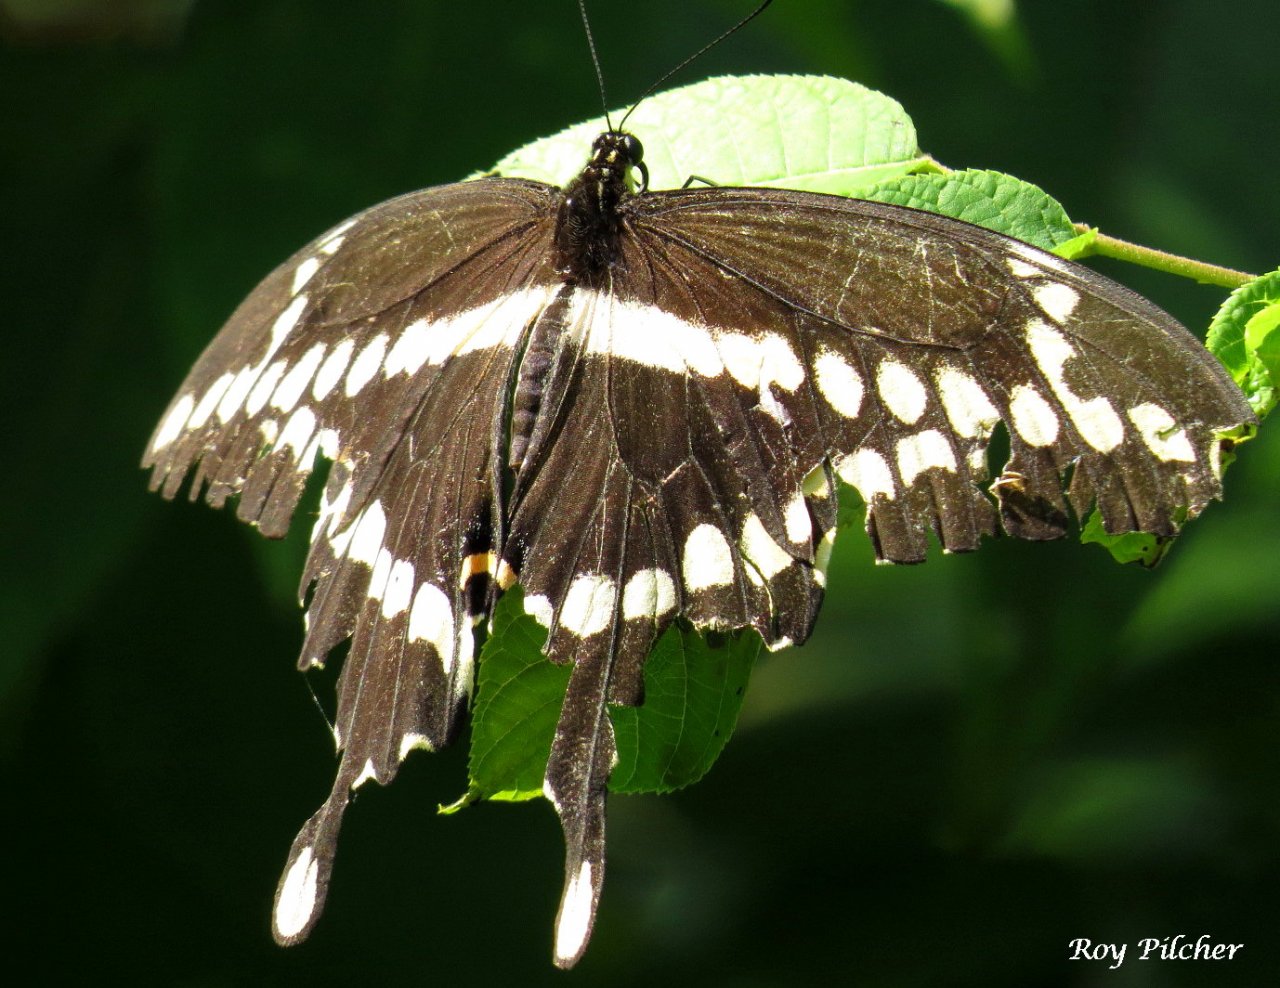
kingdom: Animalia
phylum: Arthropoda
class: Insecta
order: Lepidoptera
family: Papilionidae
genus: Papilio
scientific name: Papilio cresphontes
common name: Eastern Giant Swallowtail
